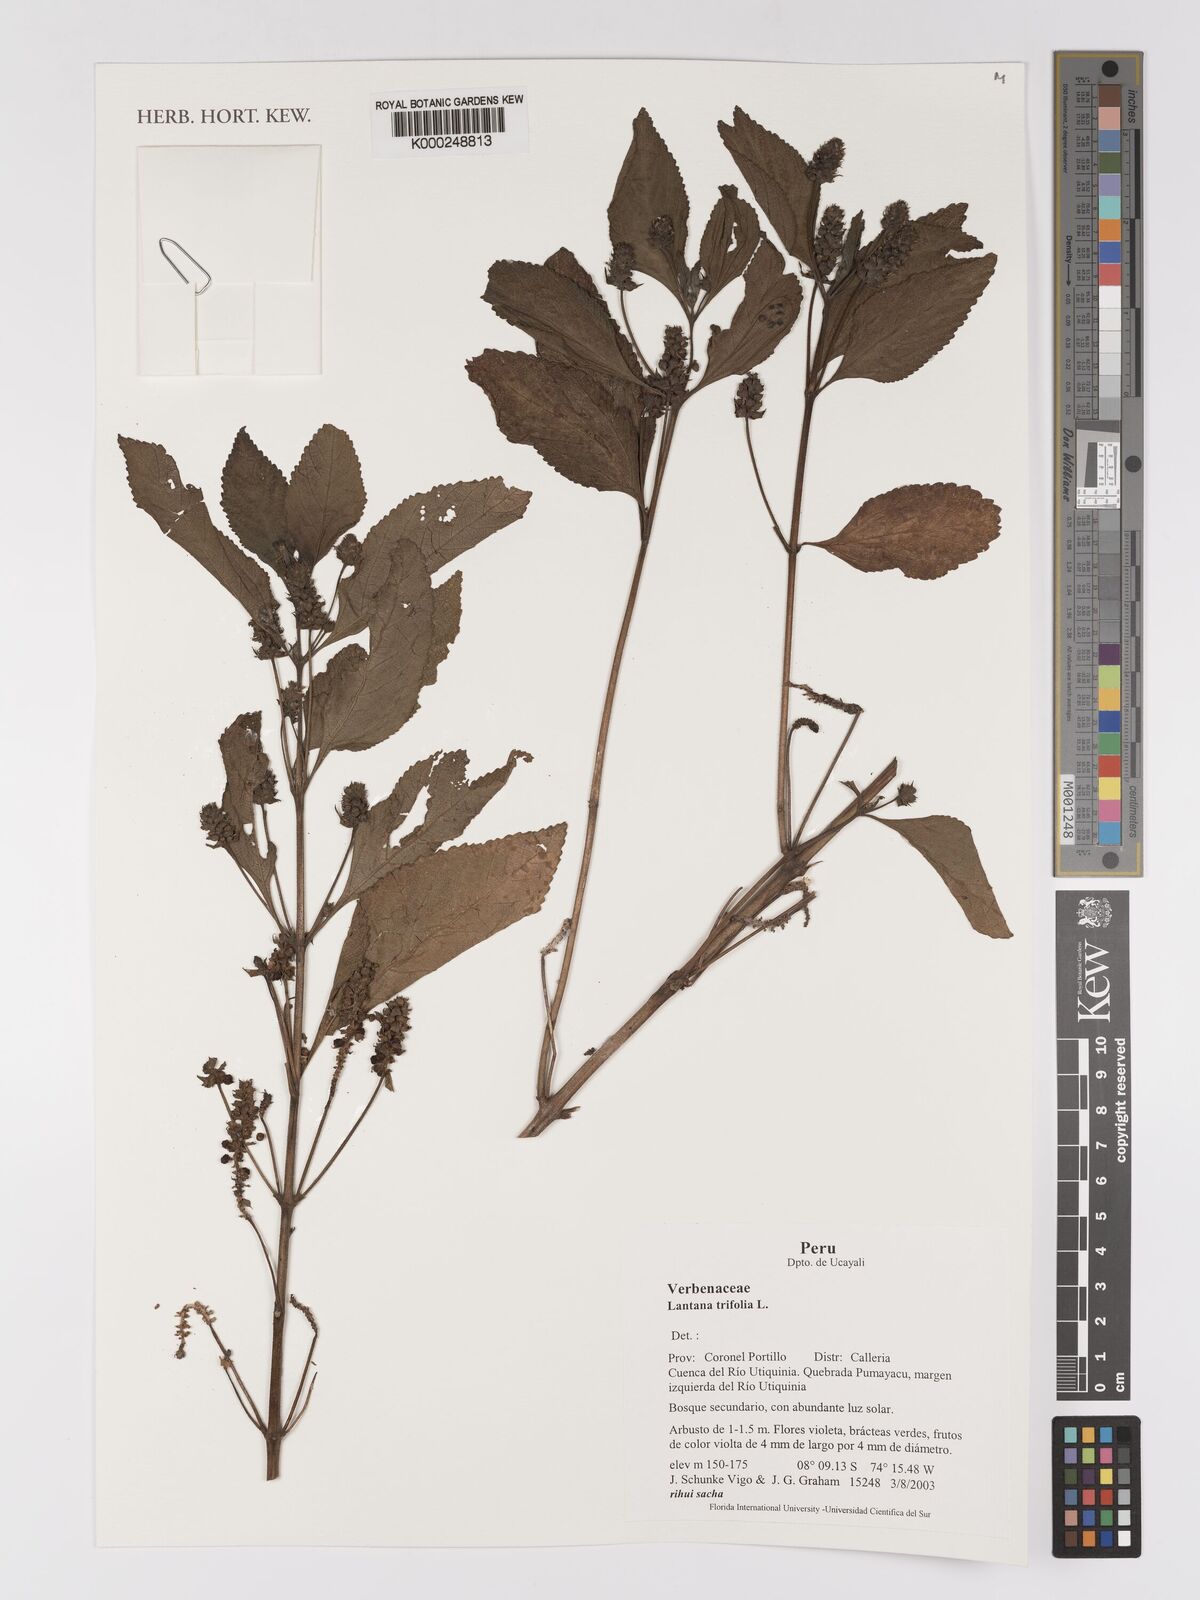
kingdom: Plantae
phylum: Tracheophyta
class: Magnoliopsida
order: Lamiales
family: Verbenaceae
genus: Lantana
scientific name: Lantana trifolia
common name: Sweet-sage
